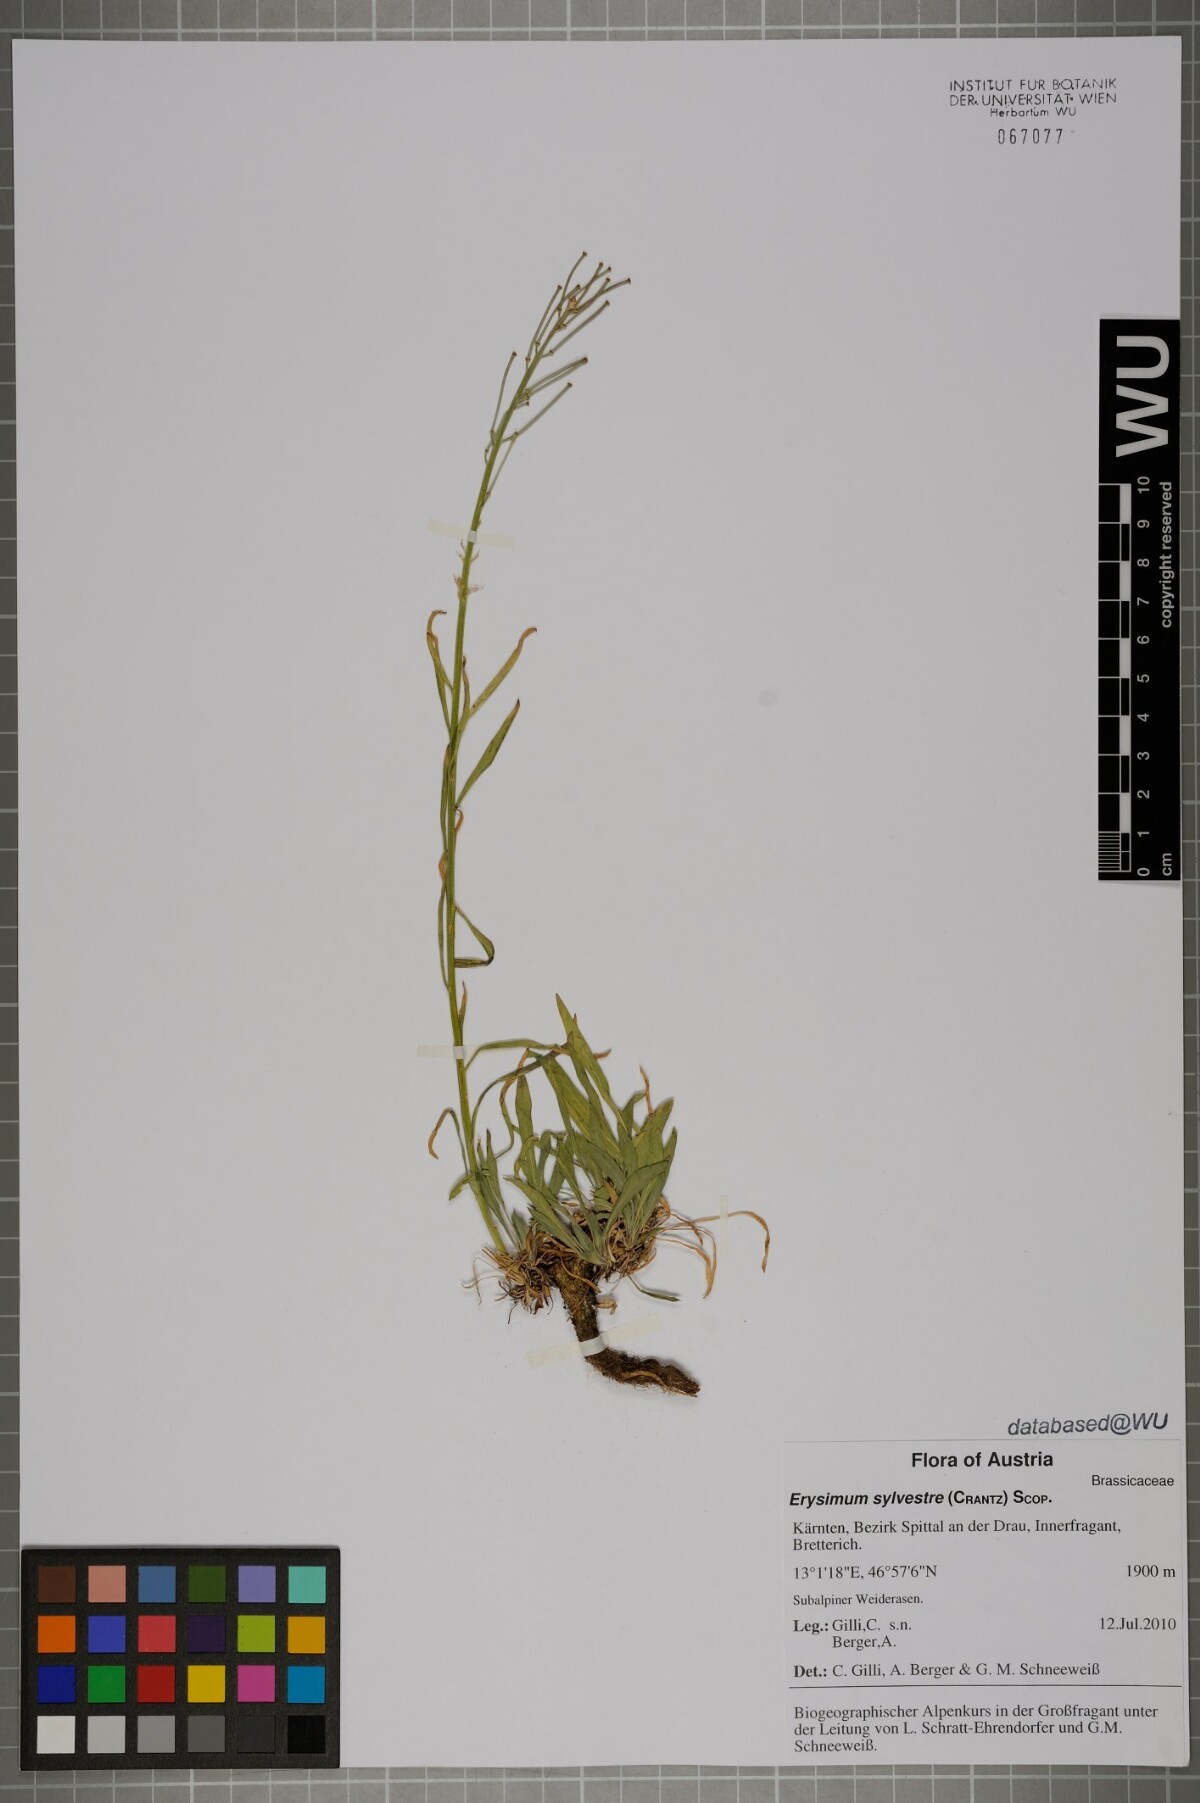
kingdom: Plantae
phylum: Tracheophyta
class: Magnoliopsida
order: Brassicales
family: Brassicaceae
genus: Erysimum
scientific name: Erysimum sylvestre
